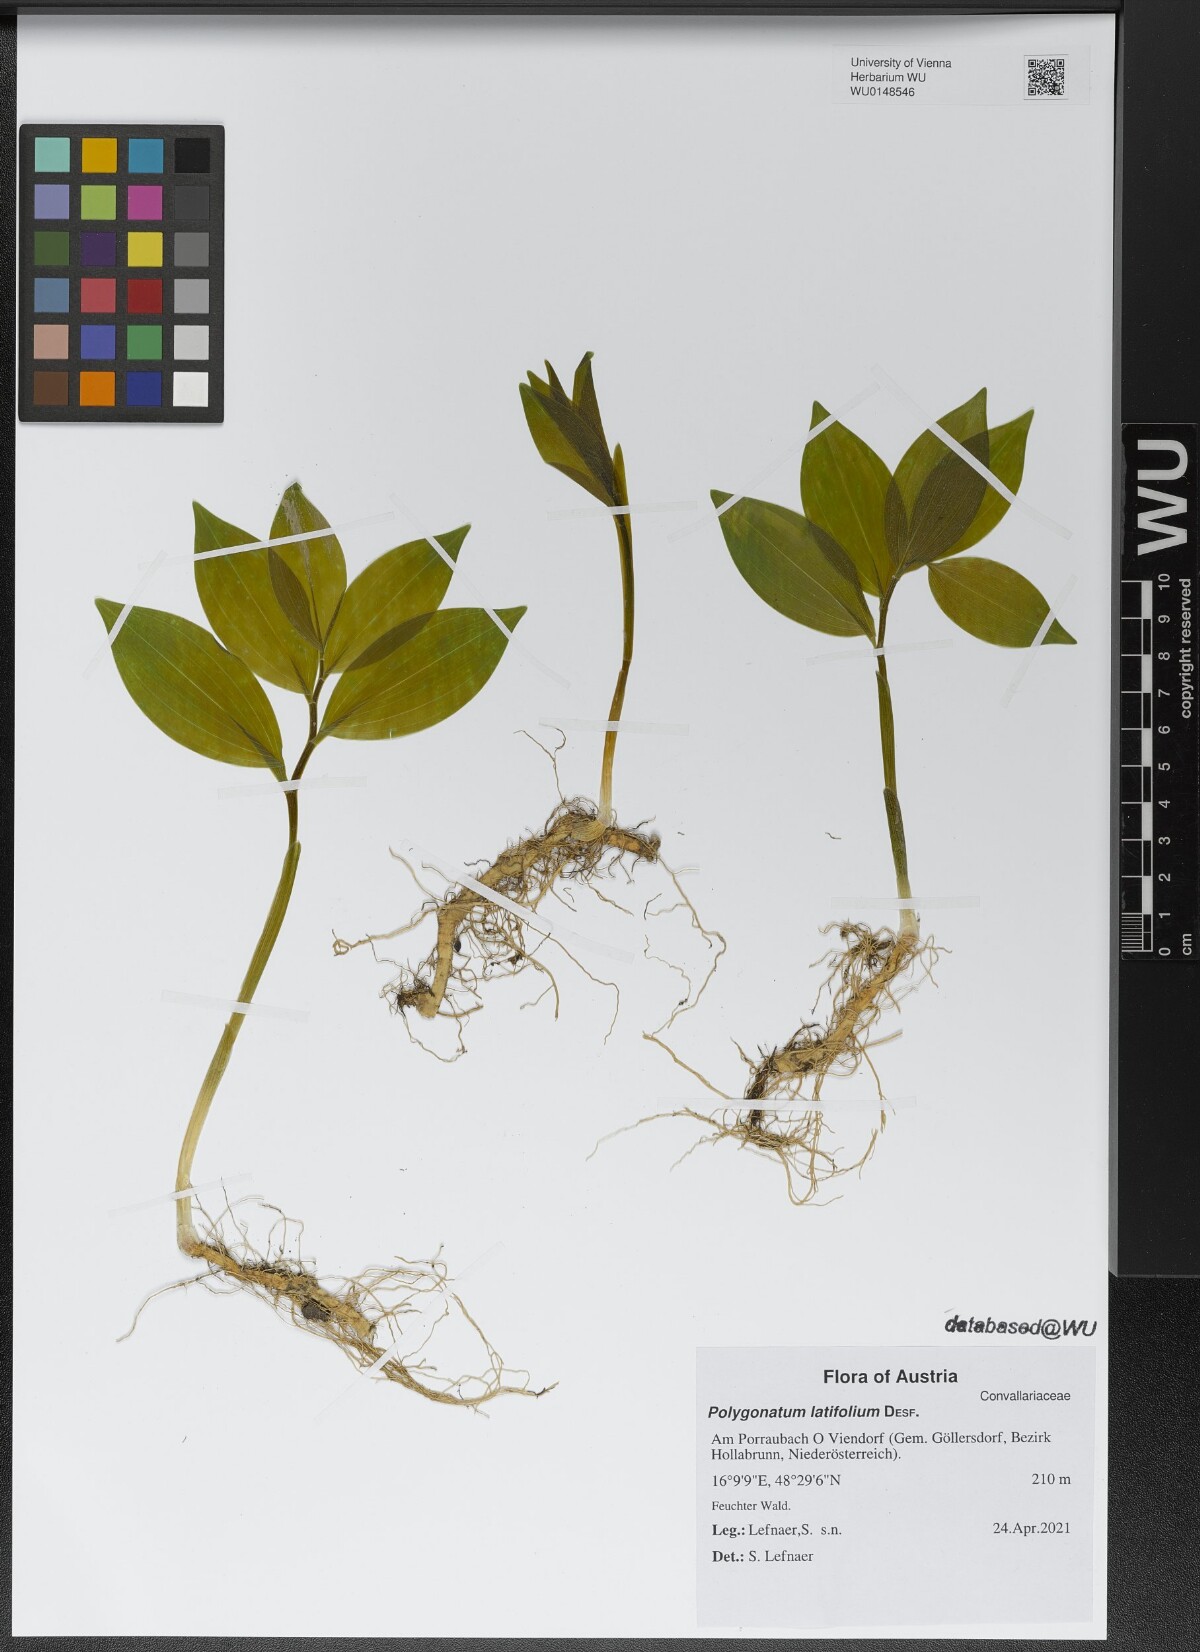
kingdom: Plantae
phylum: Tracheophyta
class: Liliopsida
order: Asparagales
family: Asparagaceae
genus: Polygonatum
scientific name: Polygonatum latifolium
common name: Broadleaf solomon's seal
